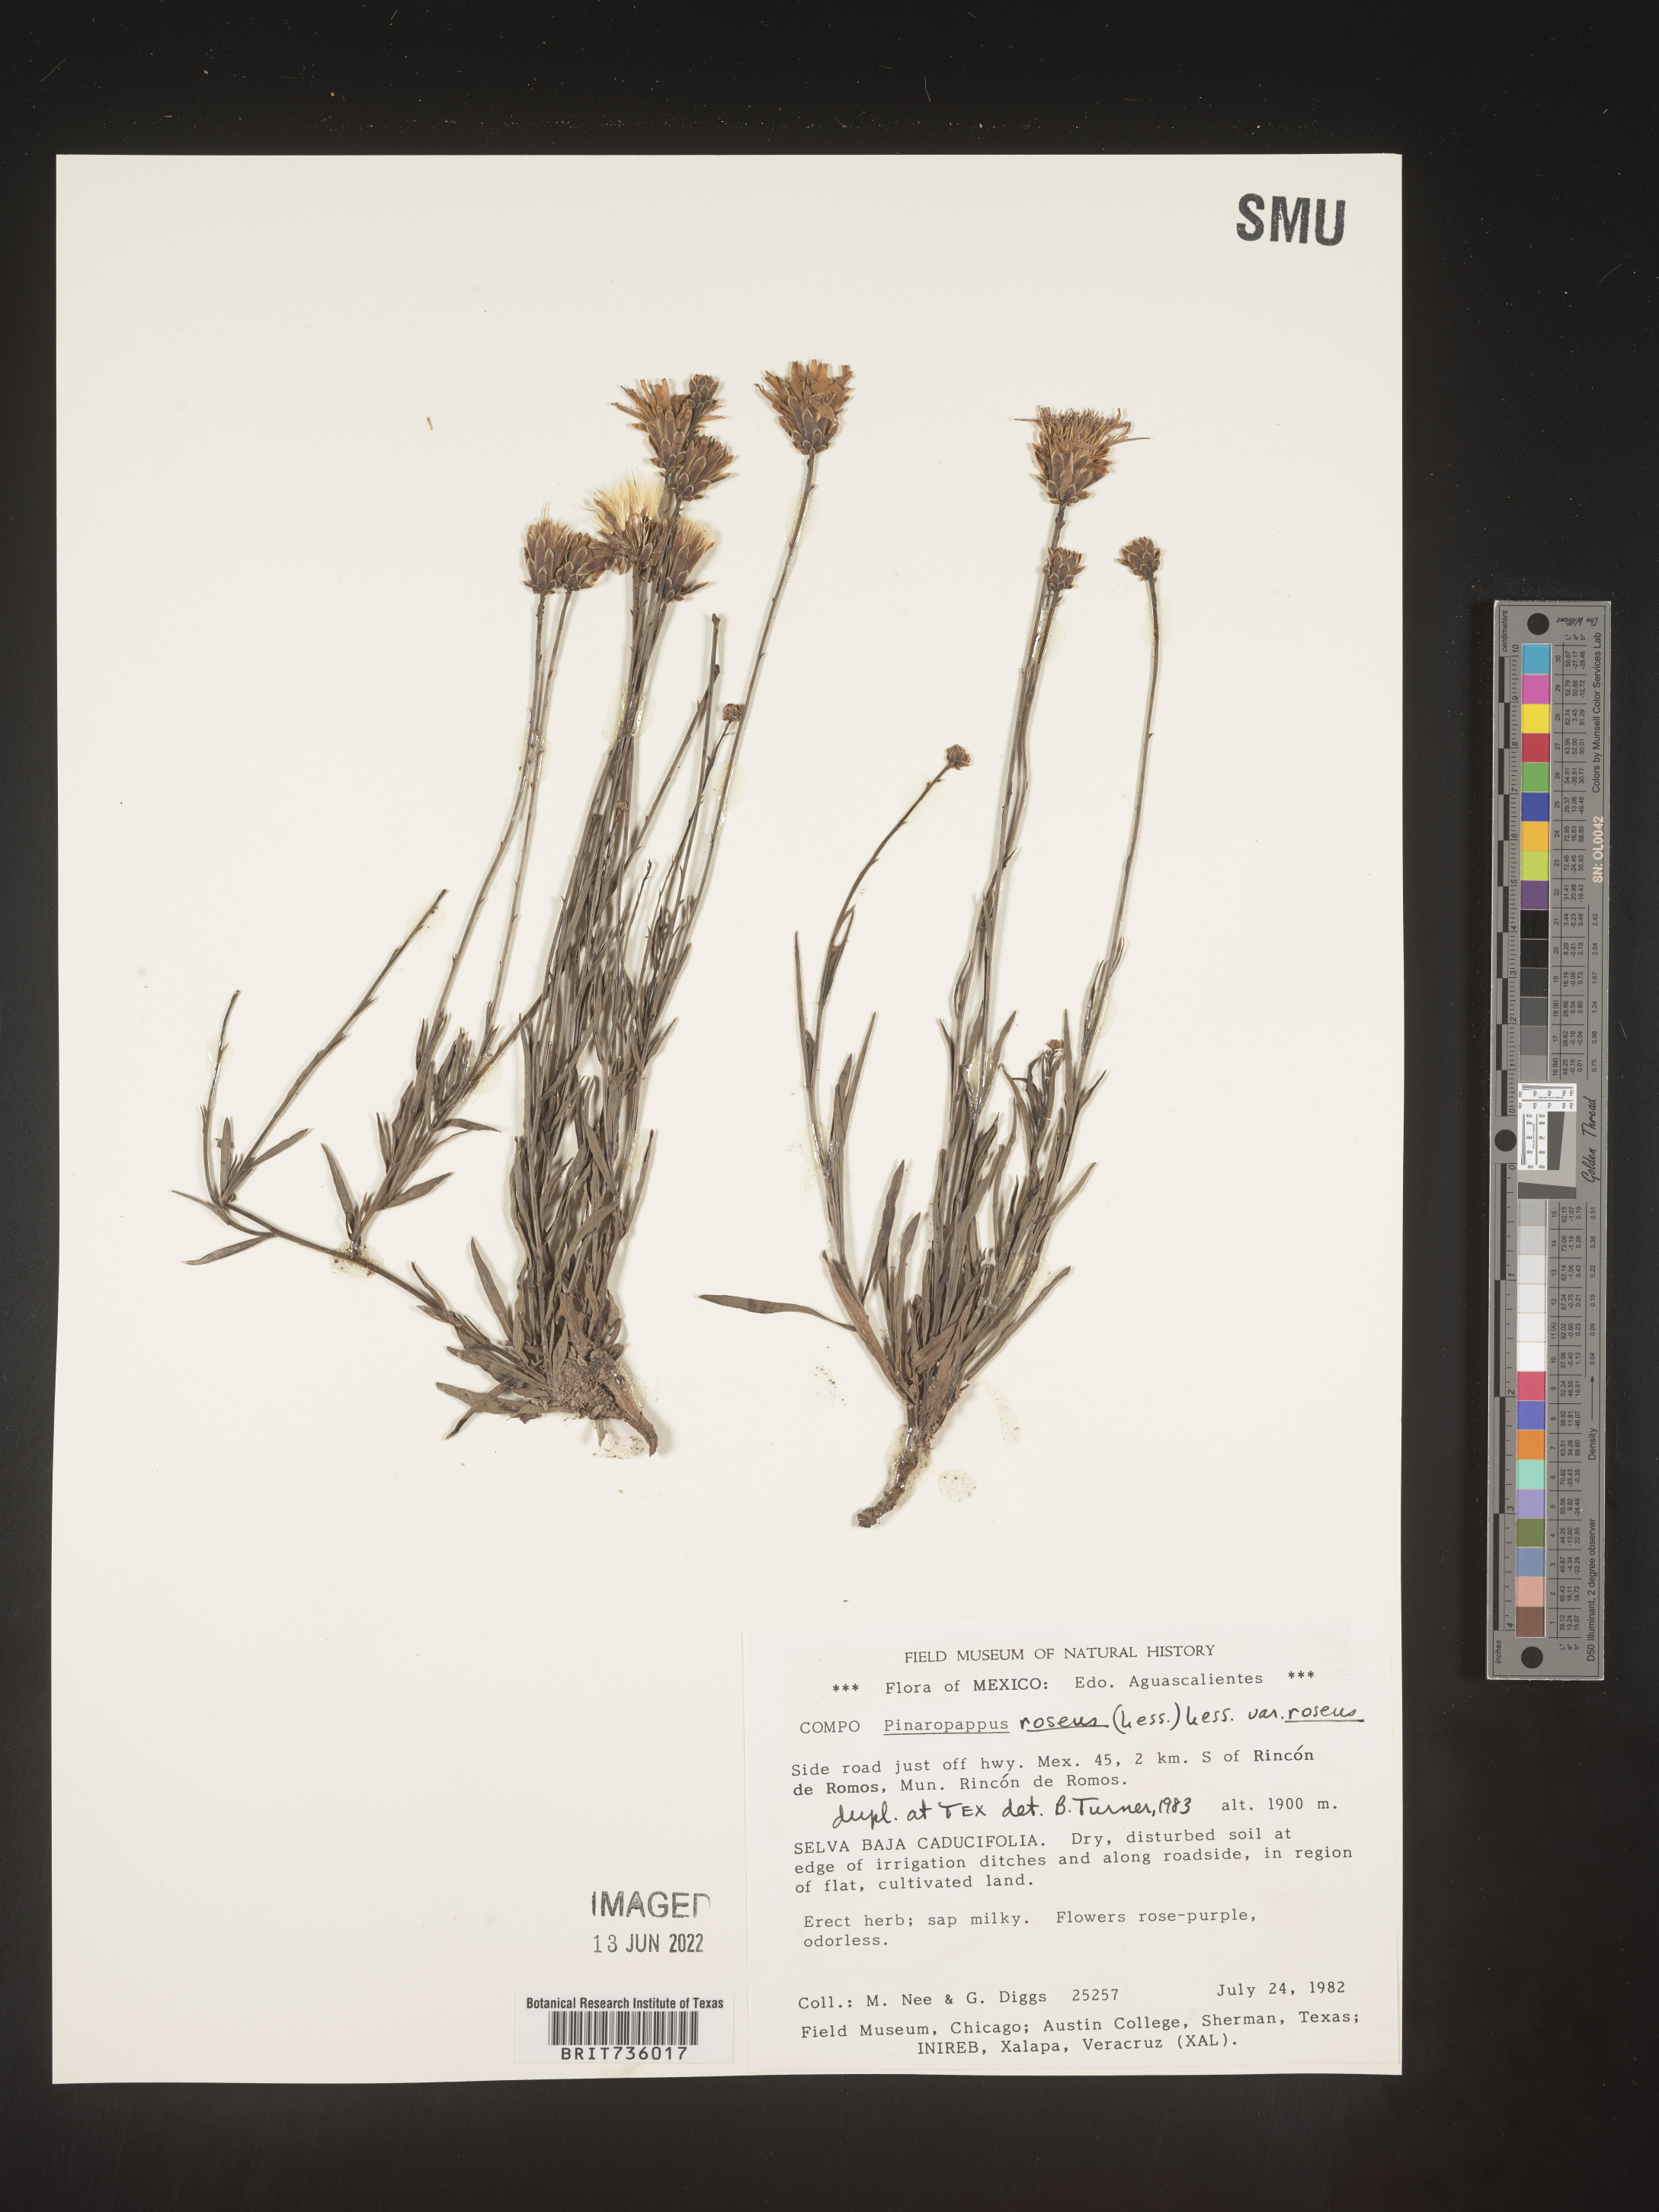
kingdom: Plantae
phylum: Tracheophyta
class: Magnoliopsida
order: Asterales
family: Asteraceae
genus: Pinaropappus
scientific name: Pinaropappus
